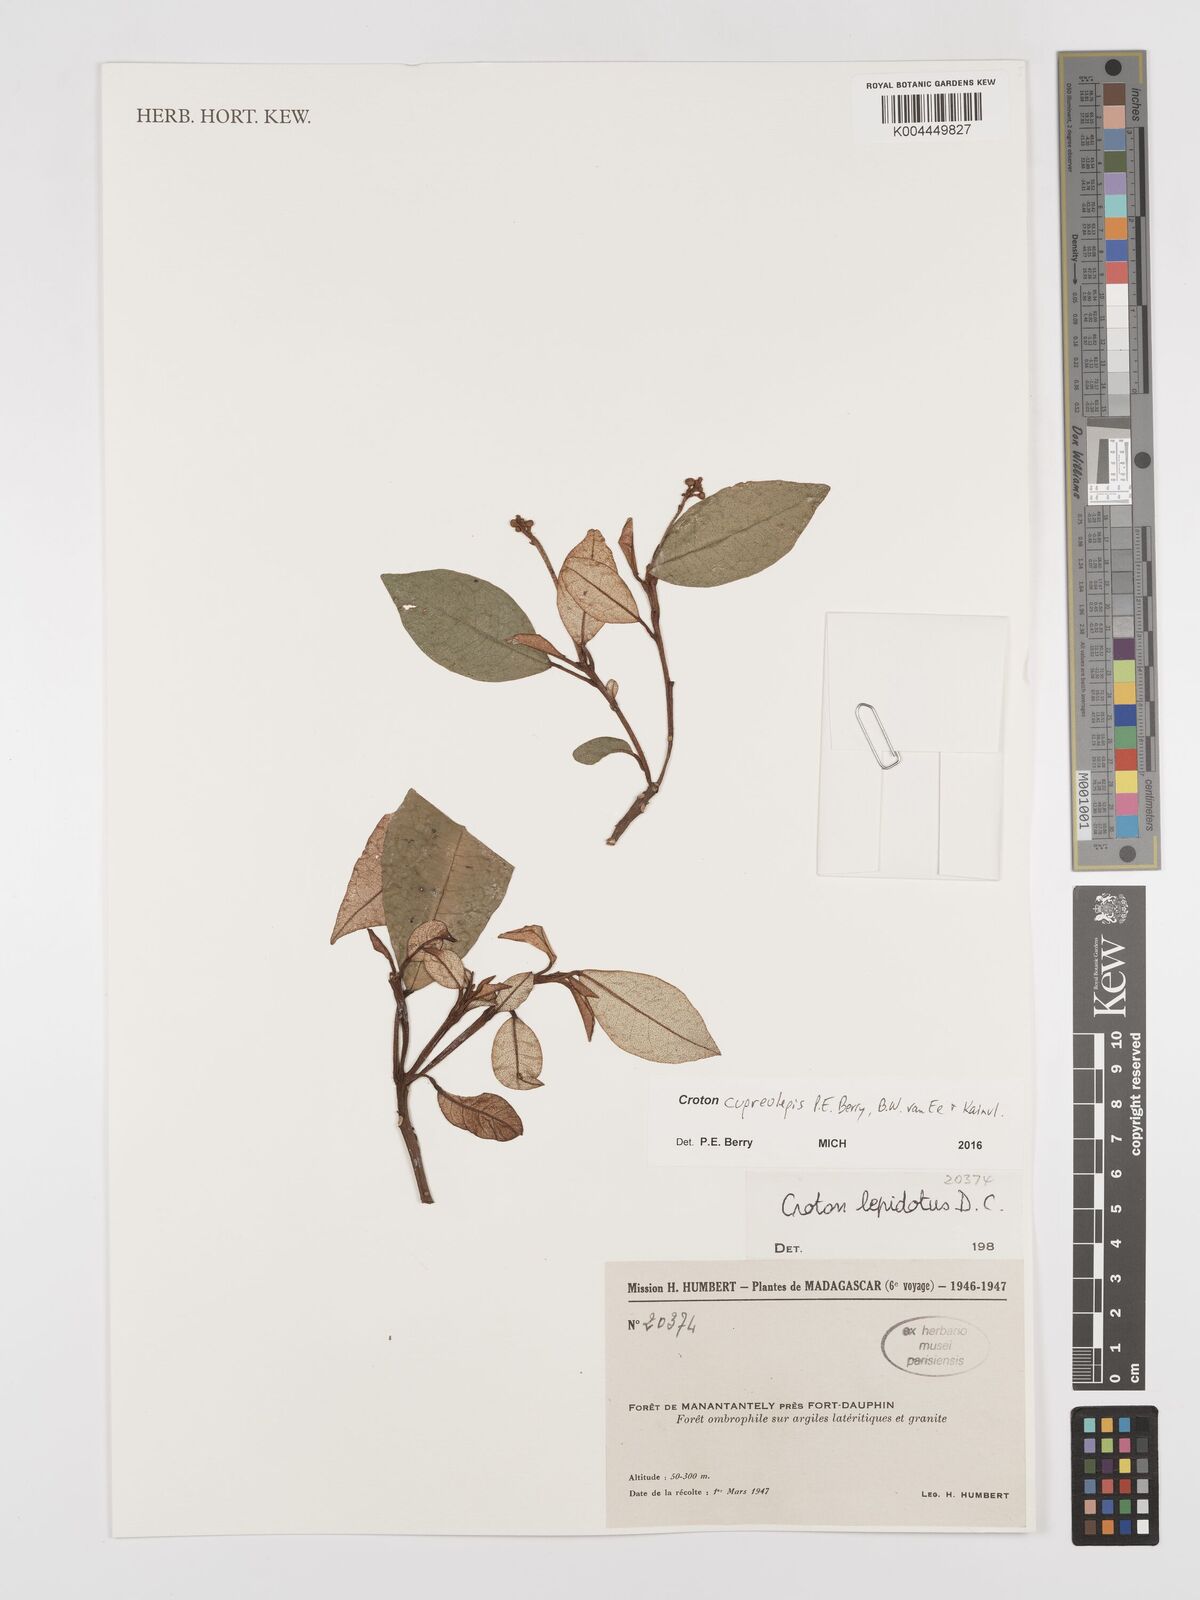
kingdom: Plantae
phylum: Tracheophyta
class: Magnoliopsida
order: Malpighiales
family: Euphorbiaceae
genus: Croton
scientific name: Croton cupreolepis
